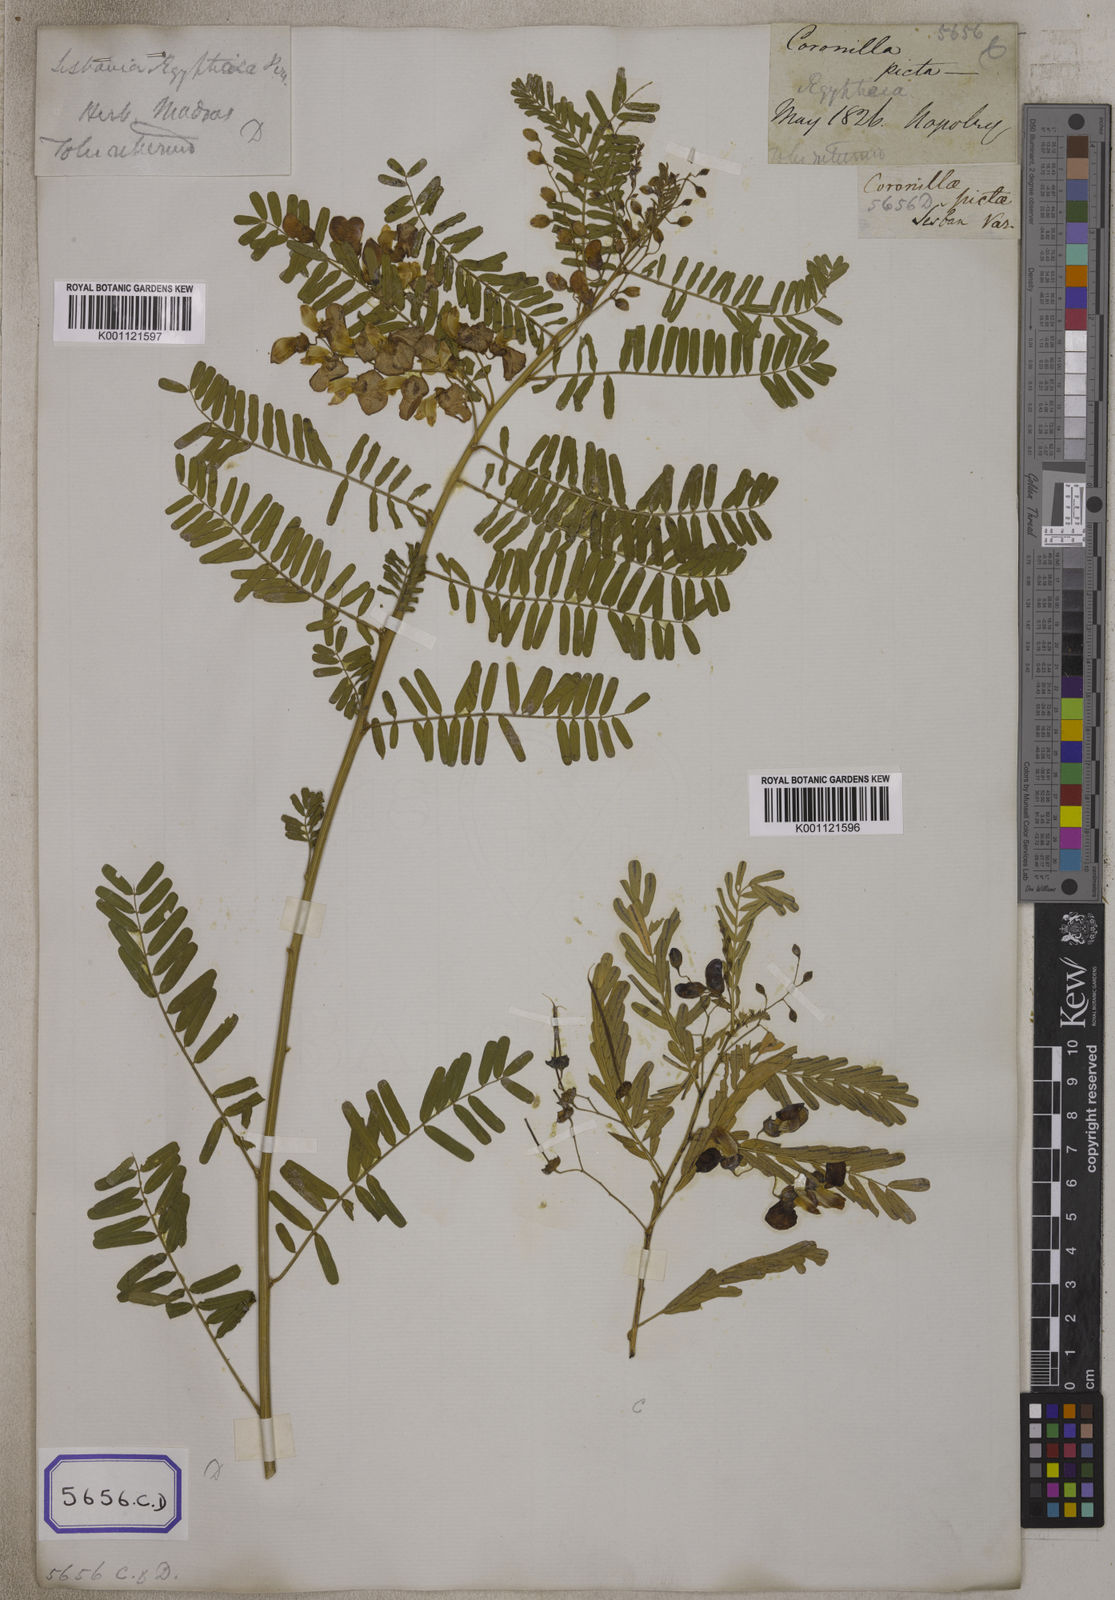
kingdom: Plantae
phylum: Tracheophyta
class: Magnoliopsida
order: Fabales
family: Fabaceae
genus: Sesbania
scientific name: Sesbania
